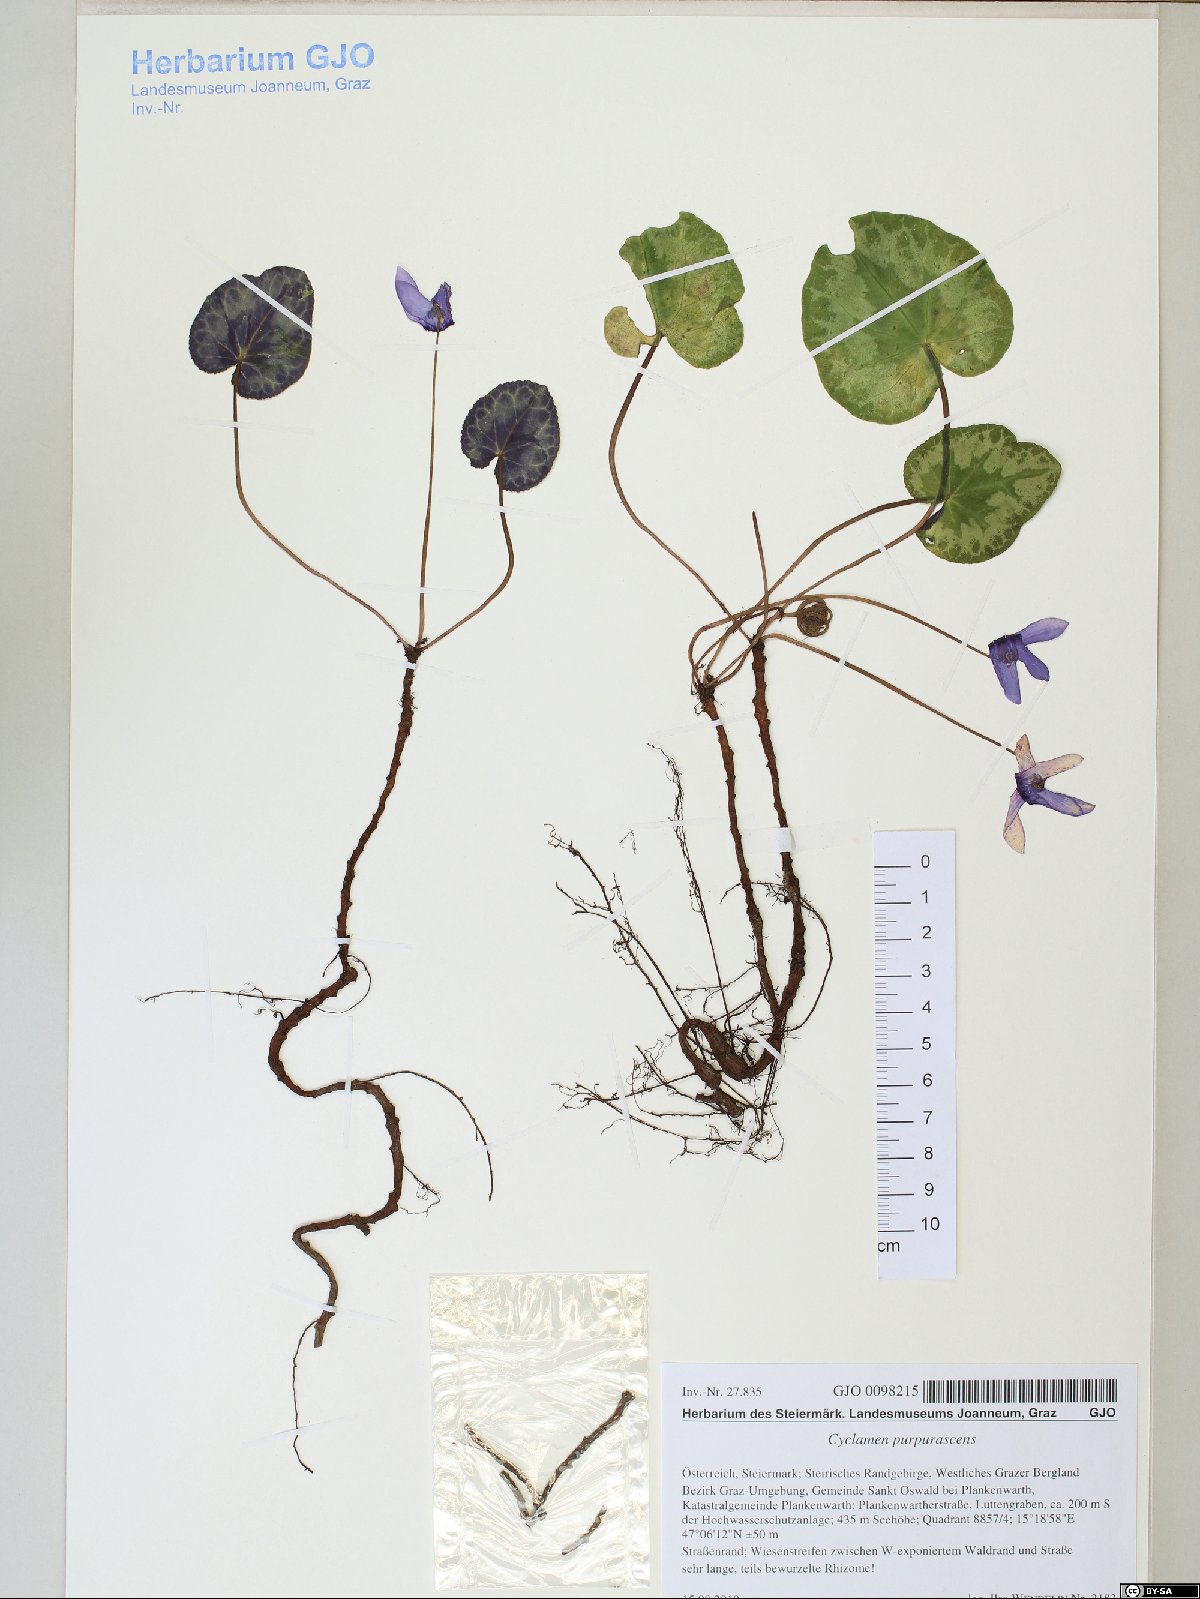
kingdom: Plantae
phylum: Tracheophyta
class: Magnoliopsida
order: Ericales
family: Primulaceae
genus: Cyclamen
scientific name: Cyclamen purpurascens
